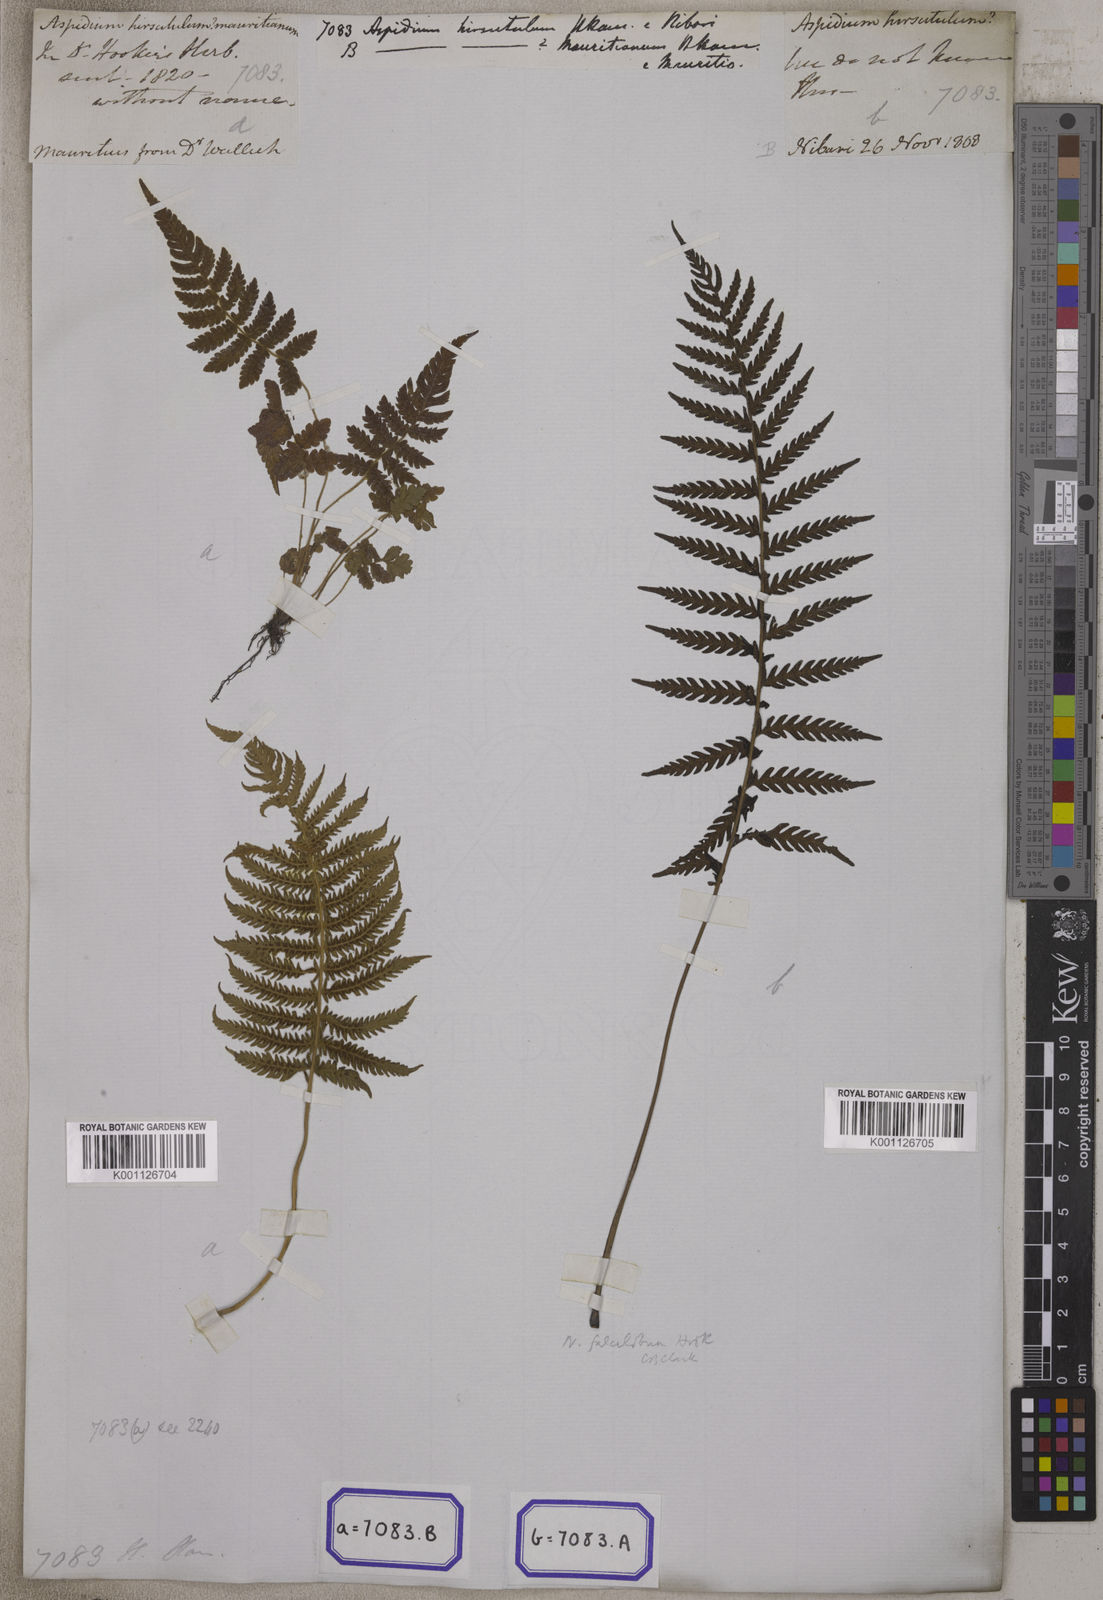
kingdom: Plantae
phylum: Tracheophyta
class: Polypodiopsida
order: Polypodiales
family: Tectariaceae
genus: Tectaria
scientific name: Tectaria Aspidium spec
